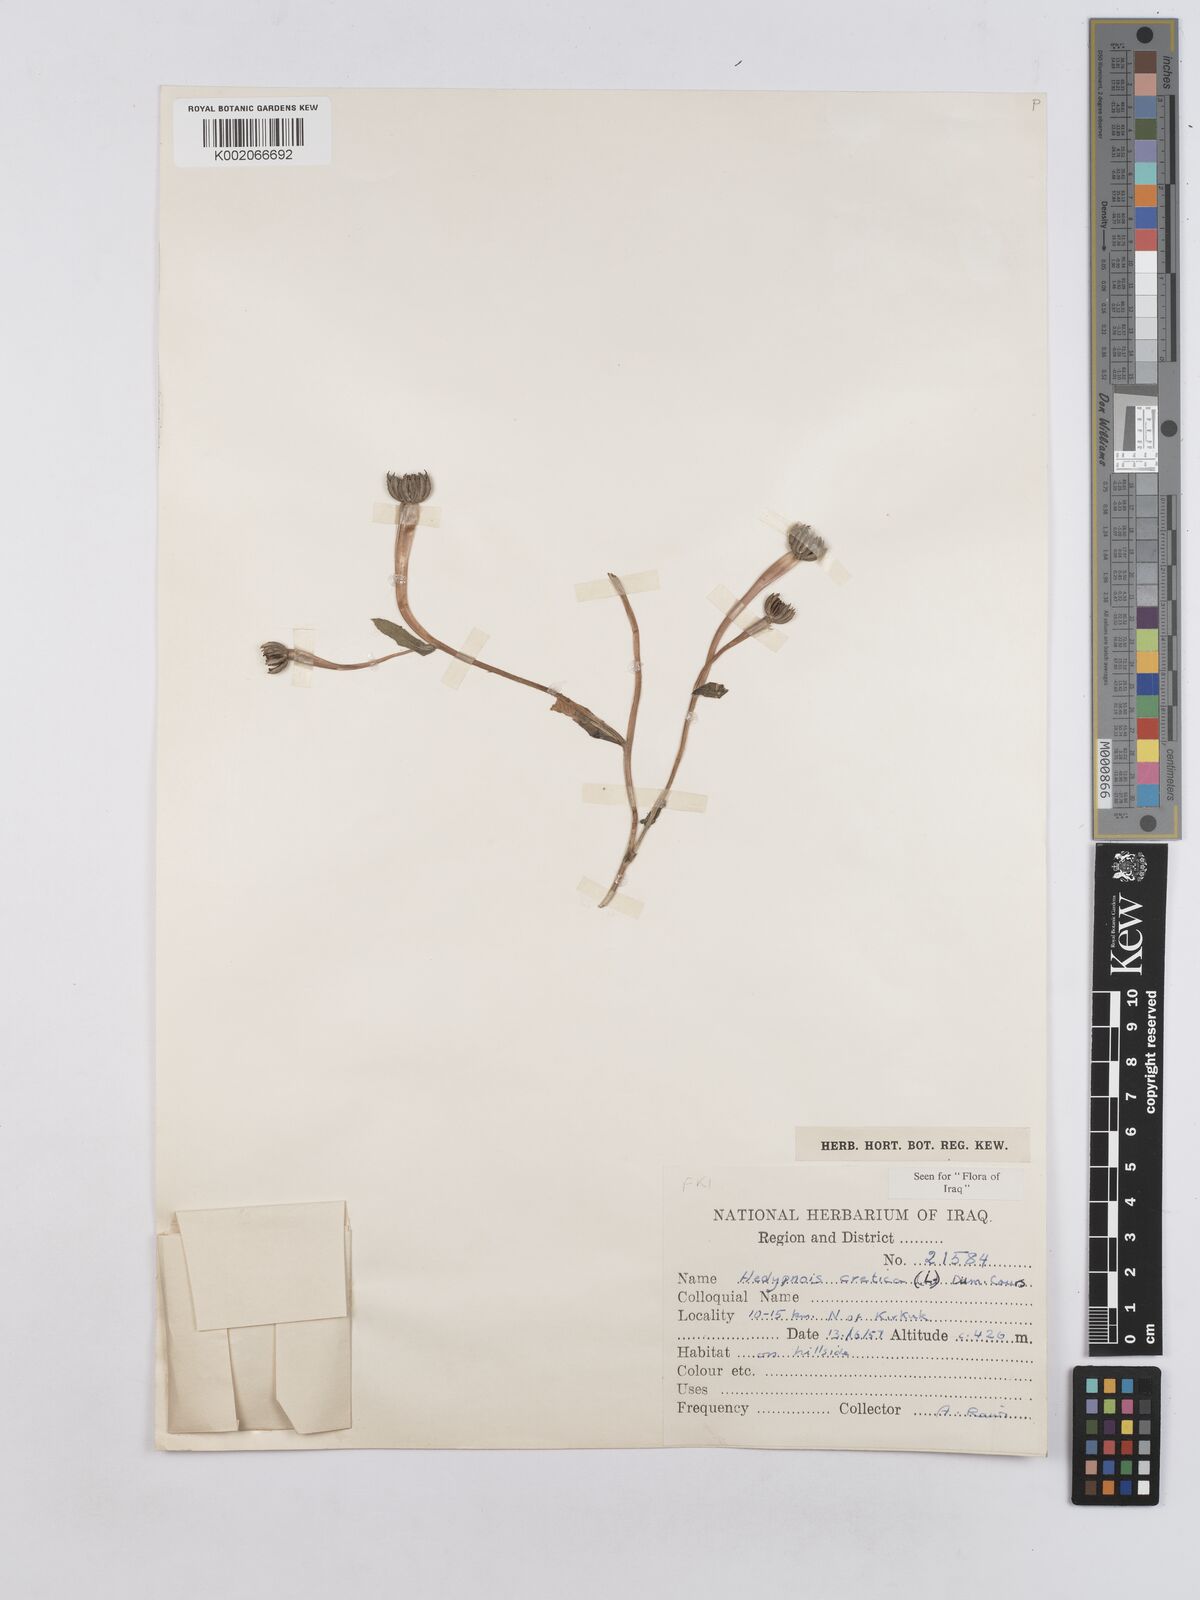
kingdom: Plantae
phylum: Tracheophyta
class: Magnoliopsida
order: Asterales
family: Asteraceae
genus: Hedypnois
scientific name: Hedypnois cretica
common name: Scaly hawkbit
